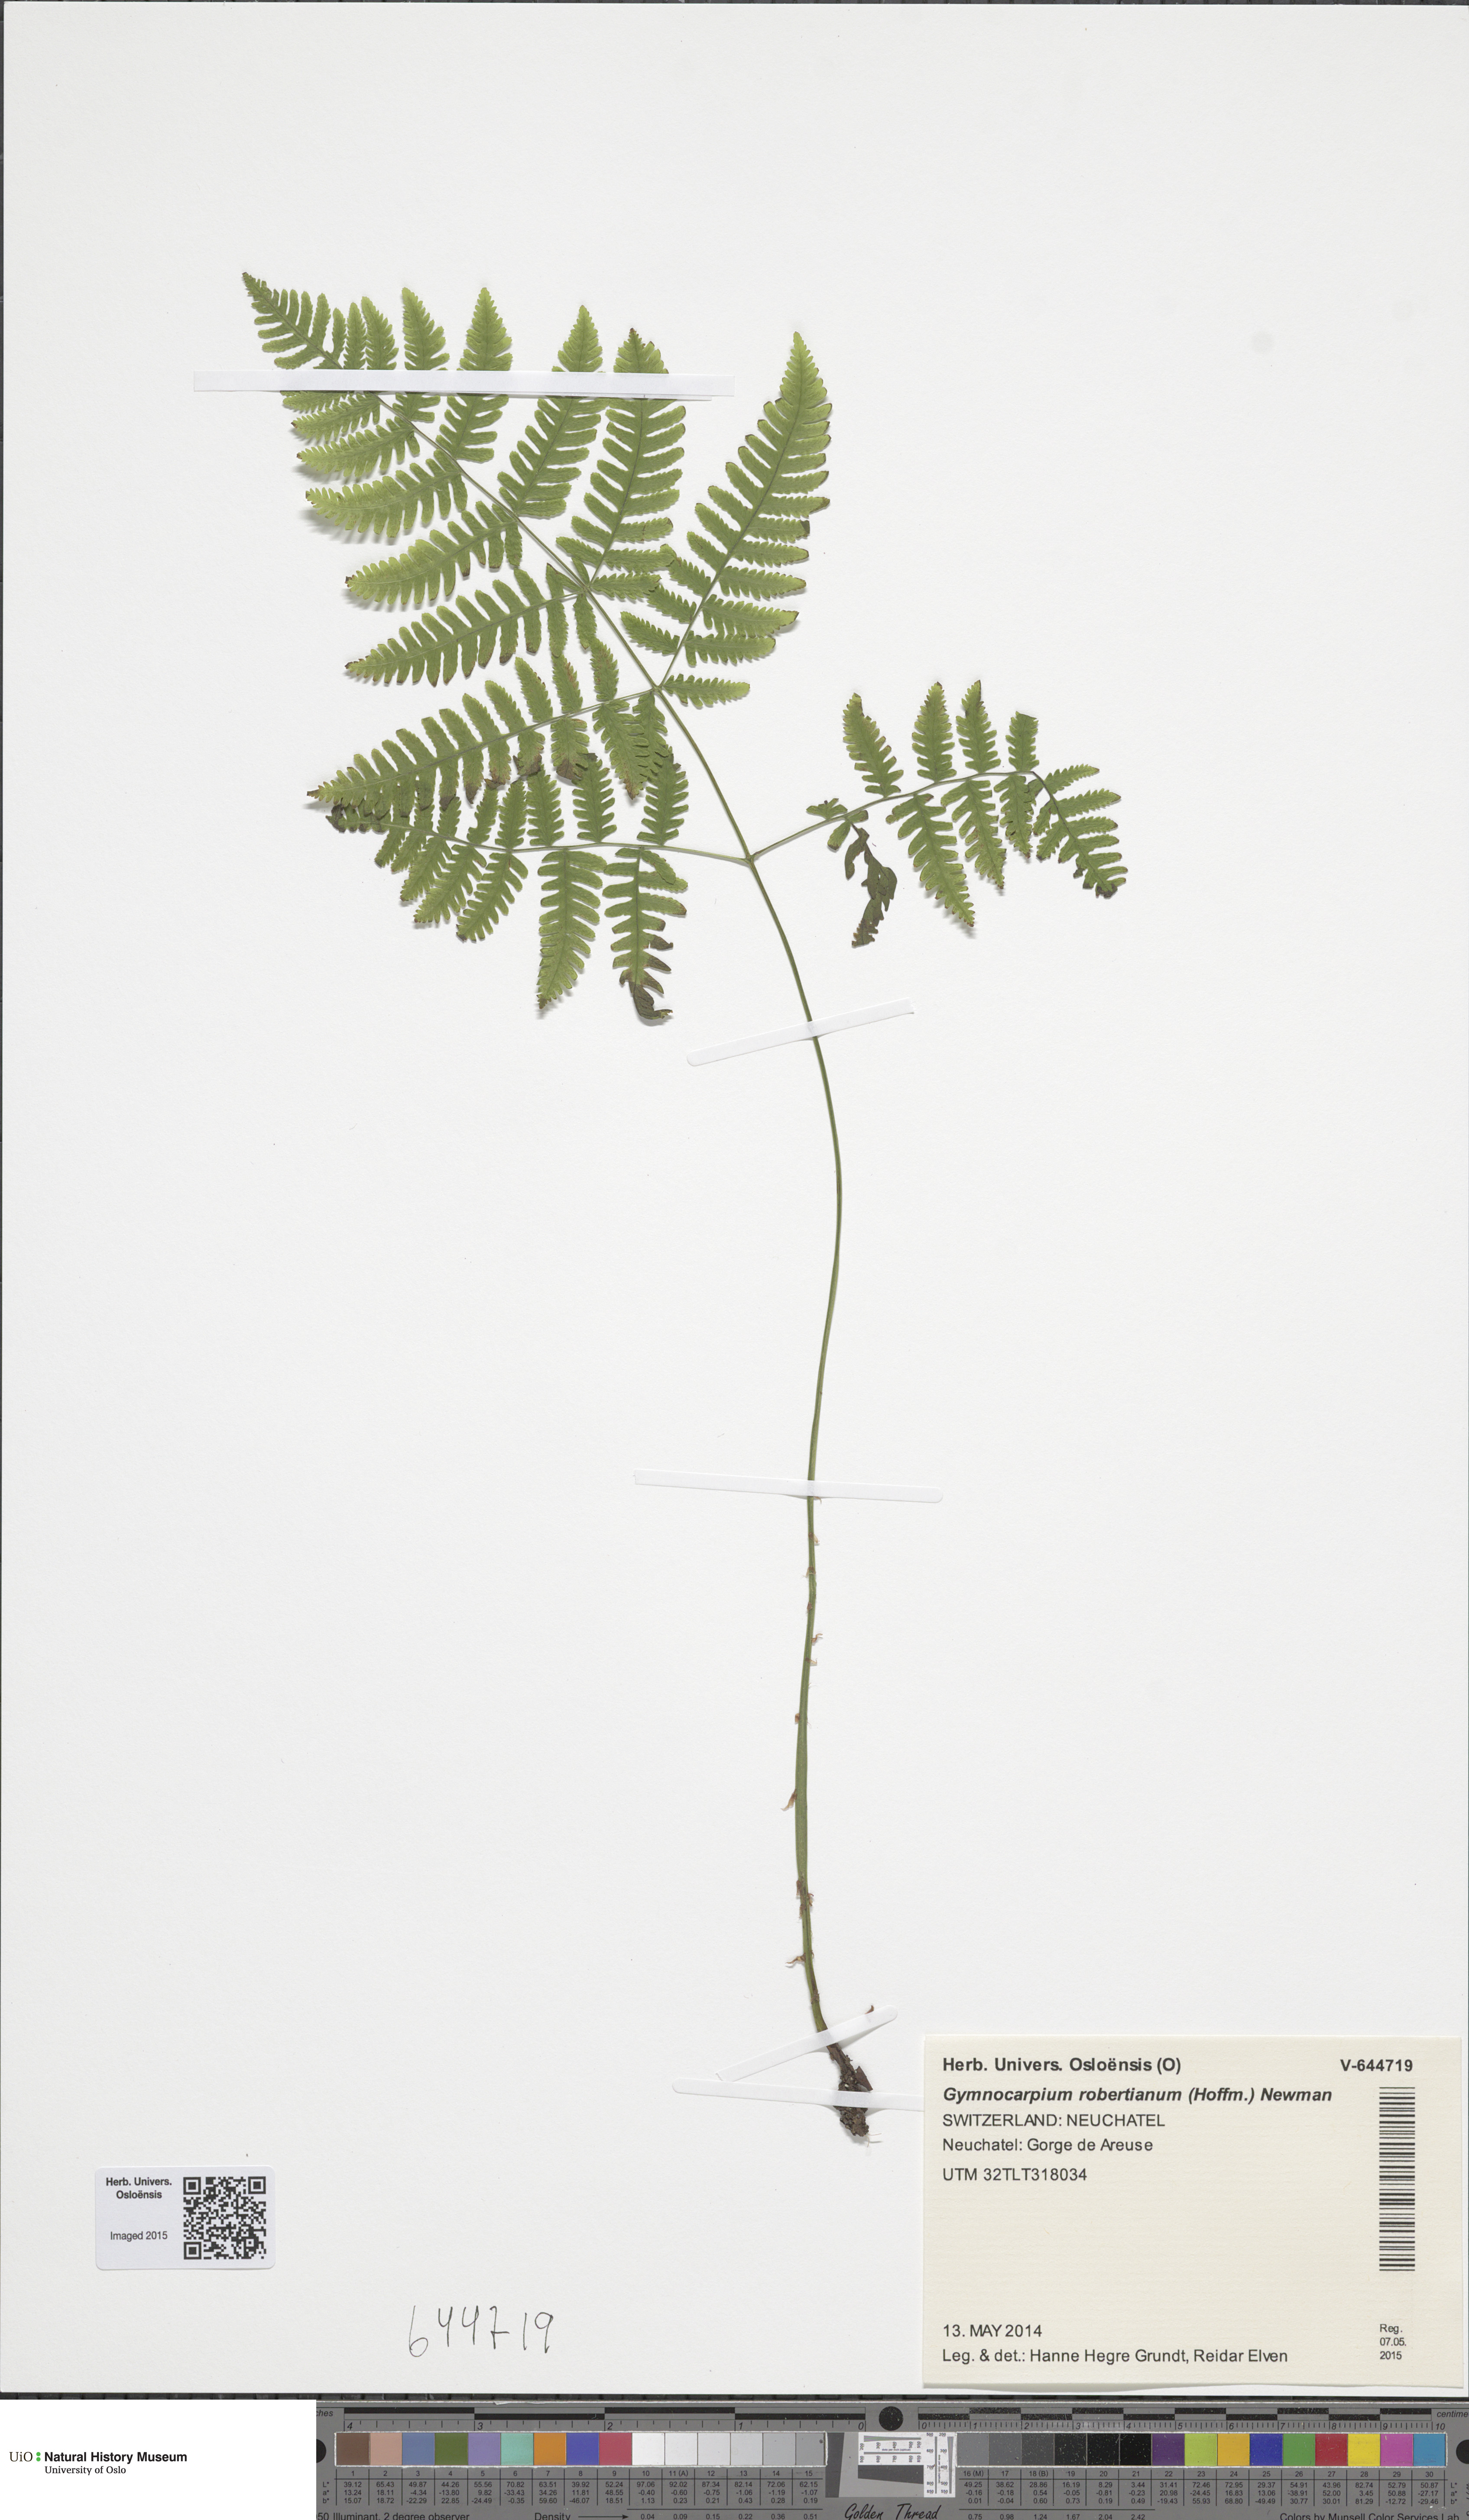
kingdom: Plantae
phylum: Tracheophyta
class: Polypodiopsida
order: Polypodiales
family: Cystopteridaceae
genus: Gymnocarpium
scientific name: Gymnocarpium robertianum
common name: Limestone fern
